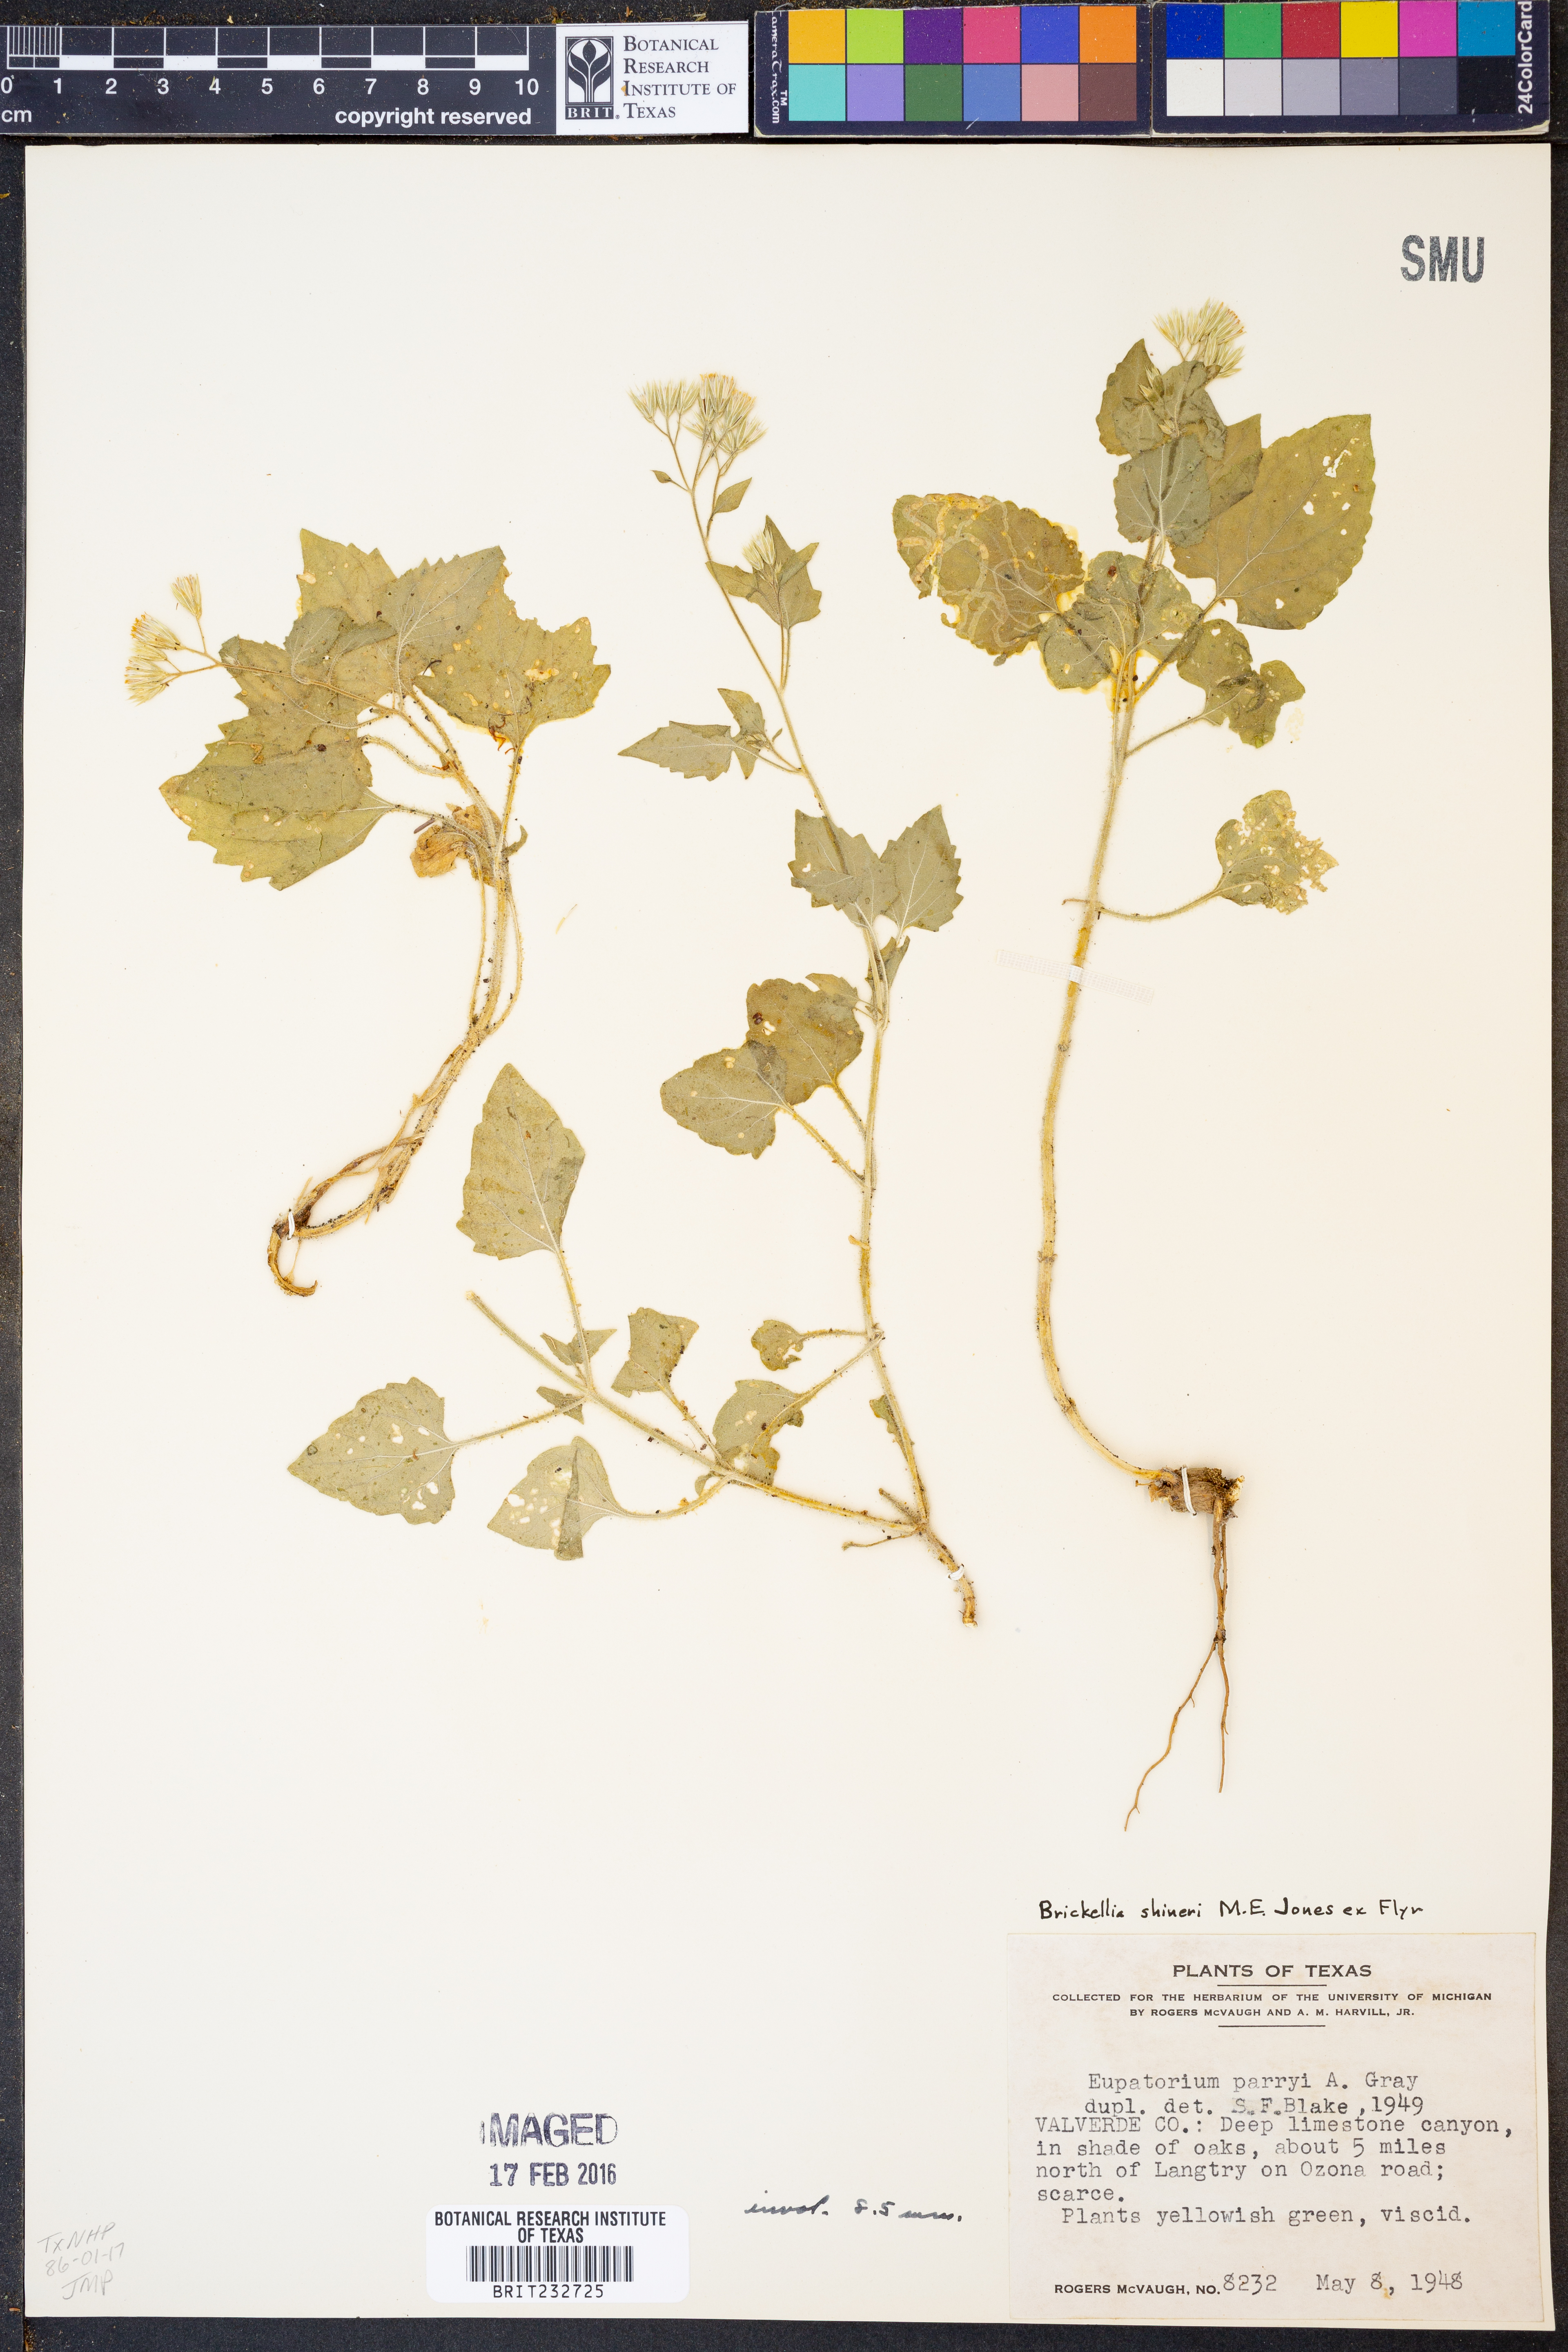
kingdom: Plantae
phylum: Tracheophyta
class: Magnoliopsida
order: Asterales
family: Asteraceae
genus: Flyriella
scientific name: Flyriella parryi
